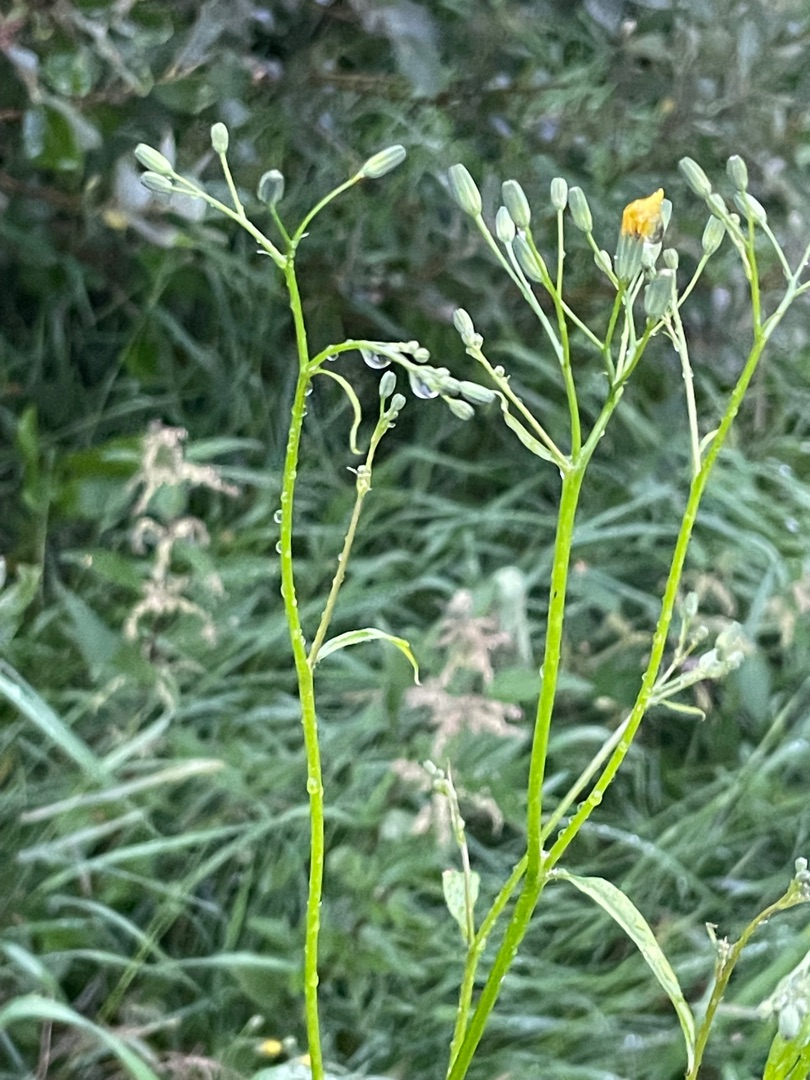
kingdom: Plantae
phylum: Tracheophyta
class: Magnoliopsida
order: Asterales
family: Asteraceae
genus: Lapsana
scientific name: Lapsana communis
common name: Haremad
